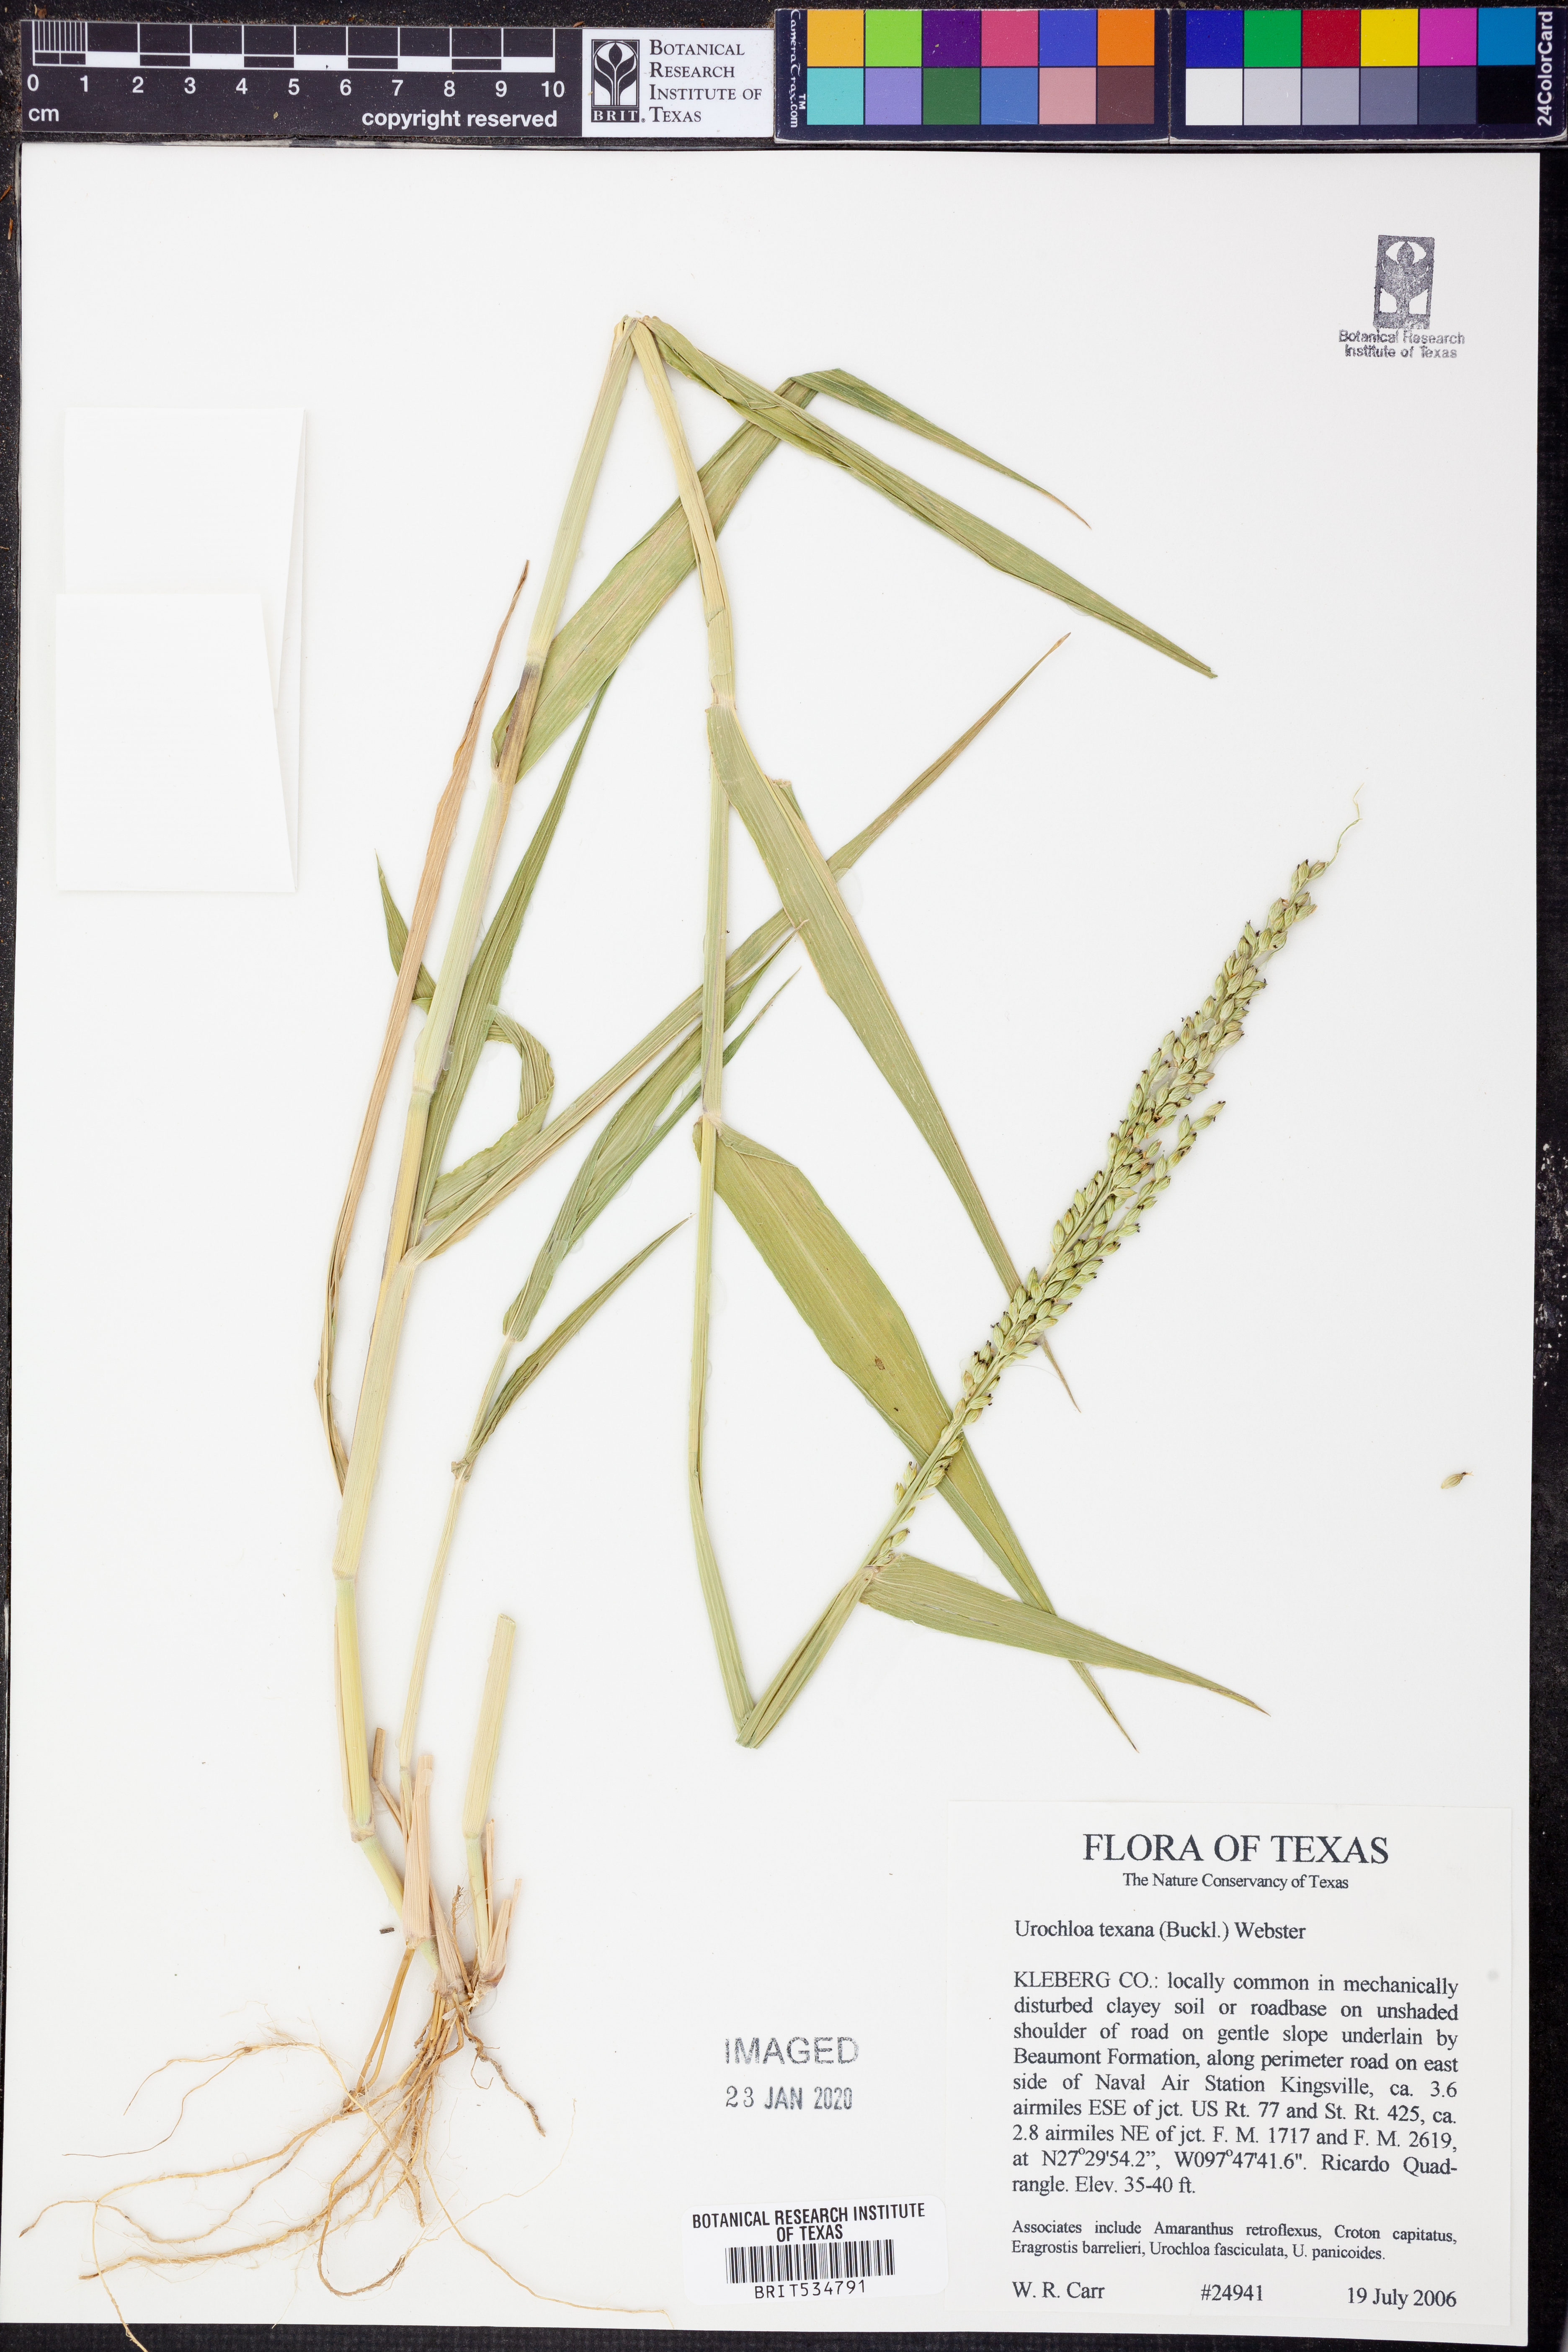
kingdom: Plantae
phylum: Tracheophyta
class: Liliopsida
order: Poales
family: Poaceae
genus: Urochloa
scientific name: Urochloa texana
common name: Texas millet
